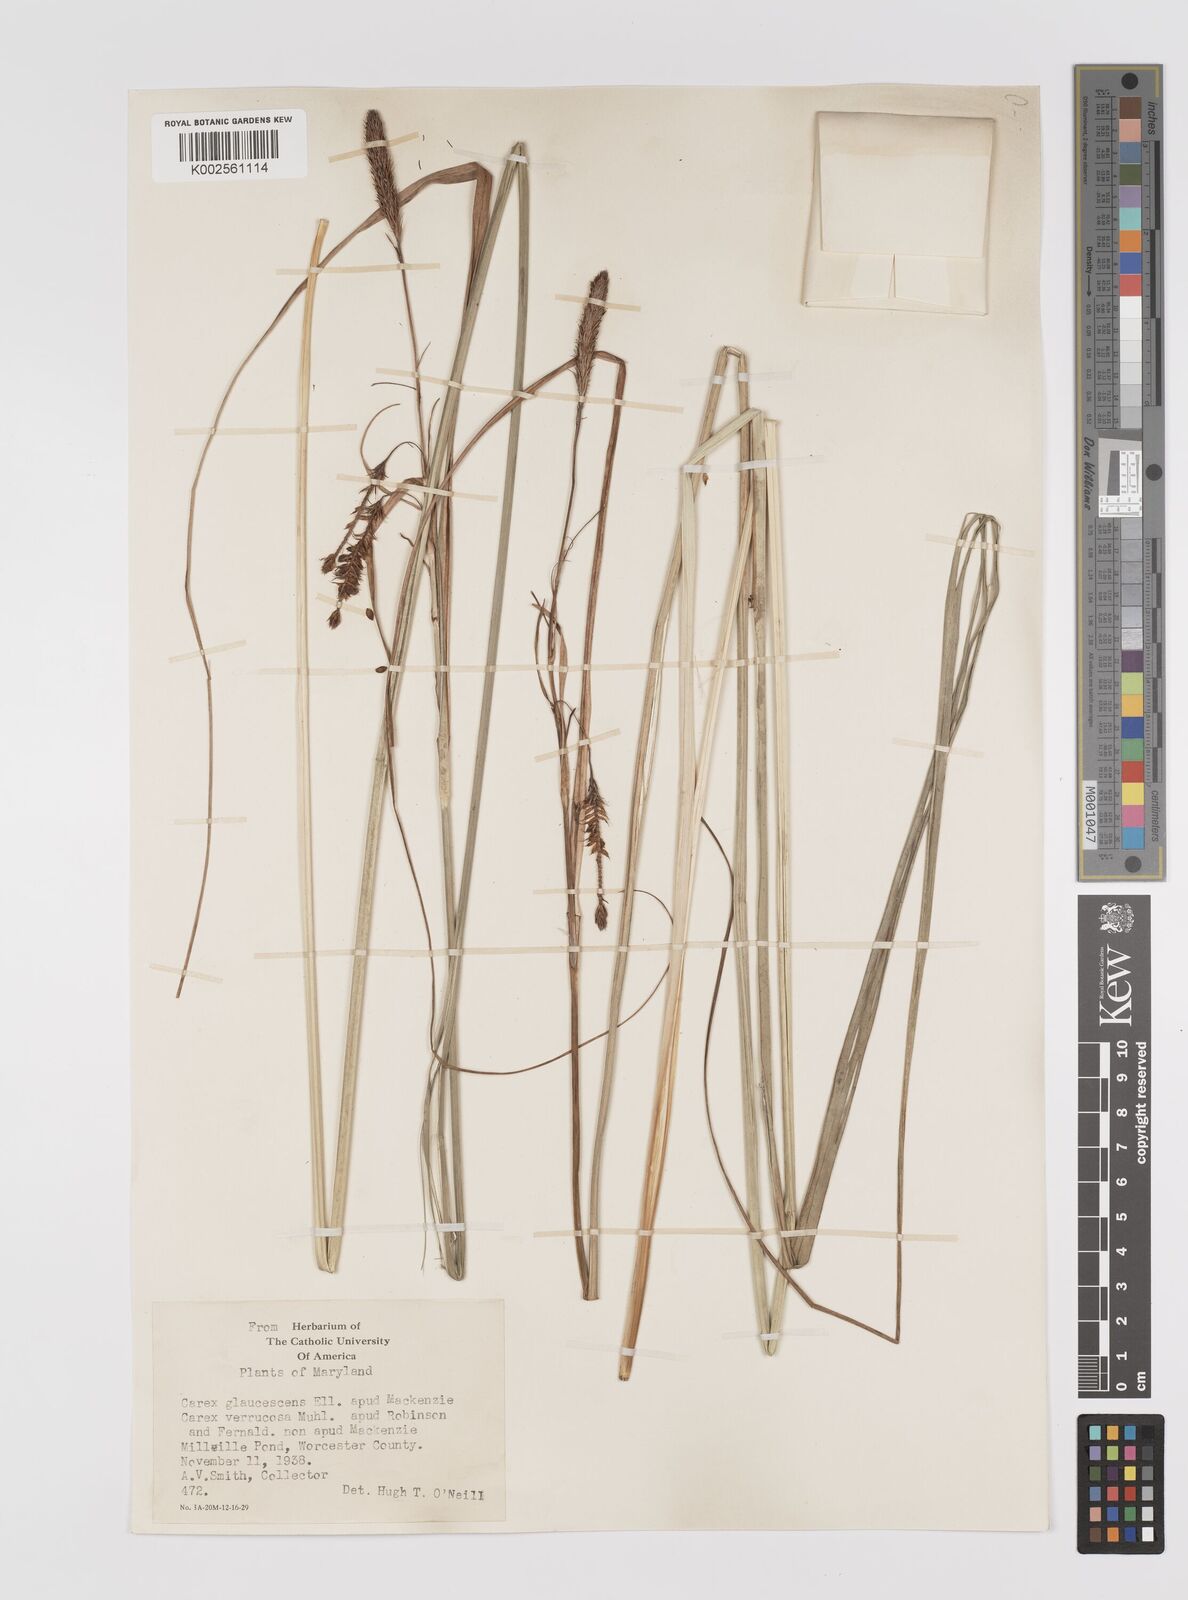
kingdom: Plantae
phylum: Tracheophyta
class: Liliopsida
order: Poales
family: Cyperaceae
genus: Carex
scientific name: Carex glaucescens
